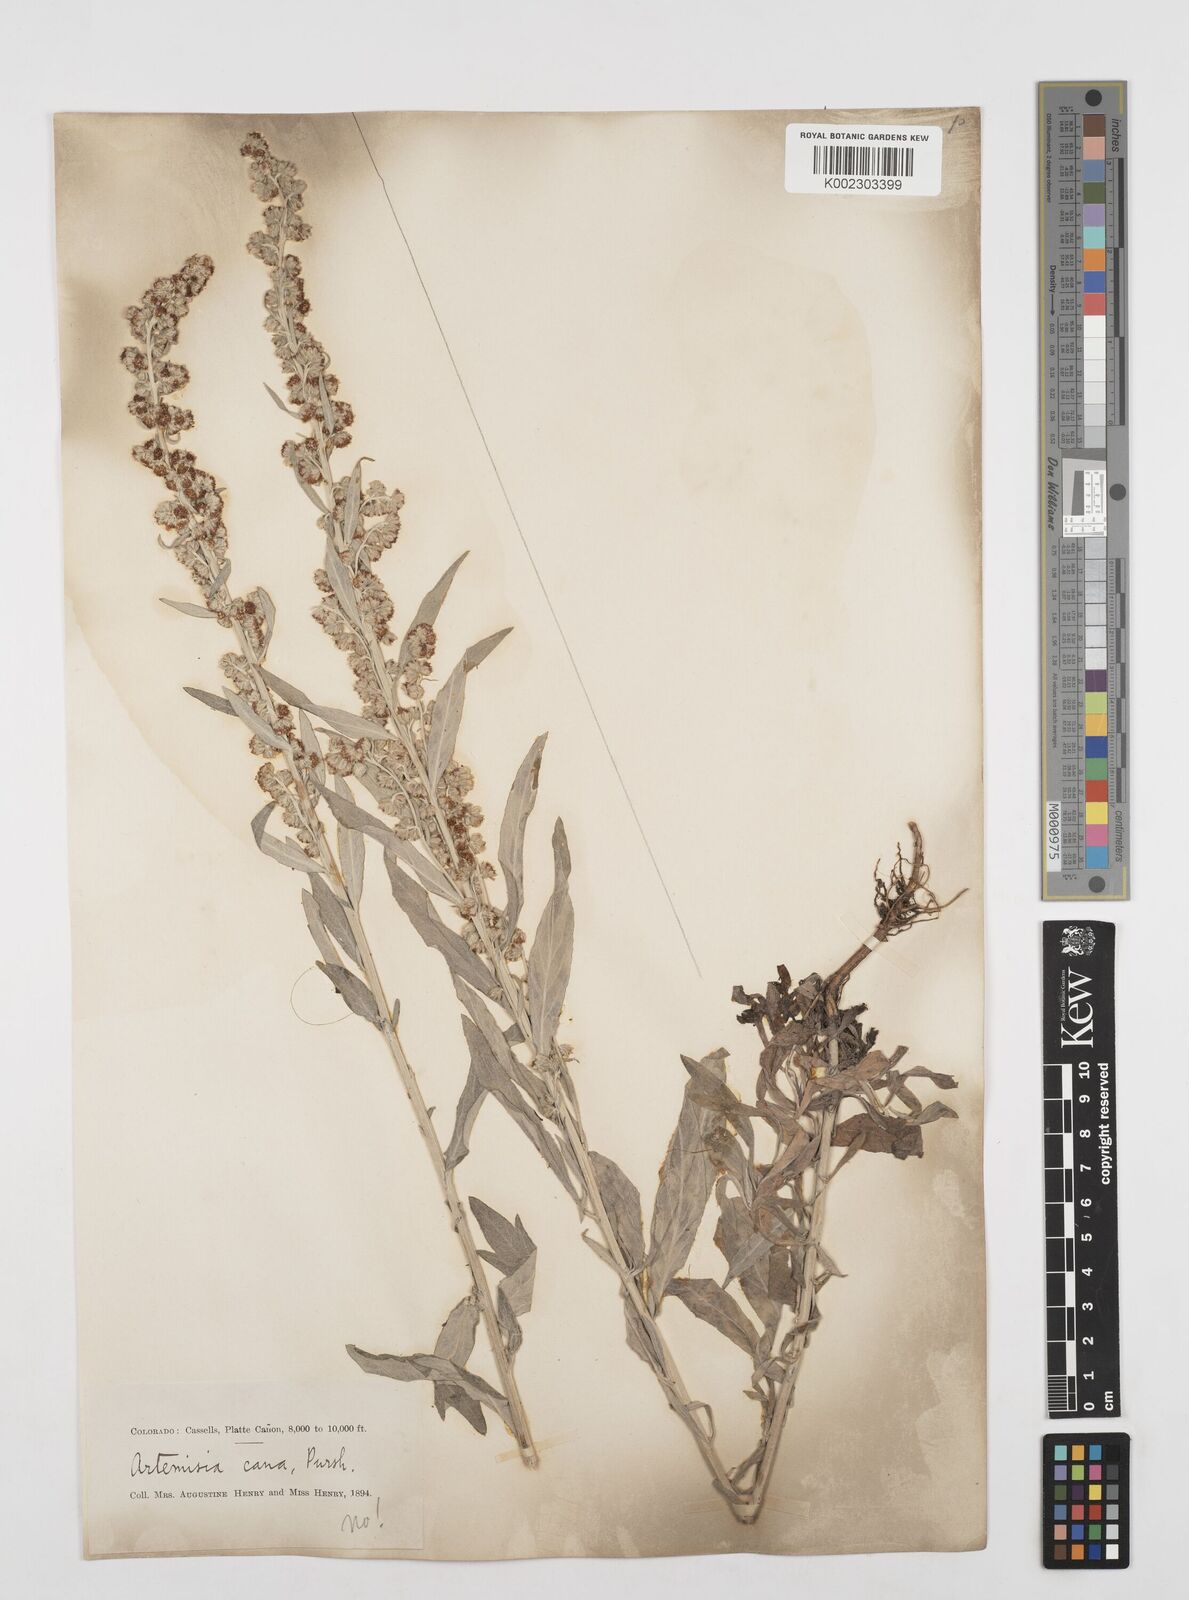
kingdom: Plantae
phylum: Tracheophyta
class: Magnoliopsida
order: Asterales
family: Asteraceae
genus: Artemisia
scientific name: Artemisia
